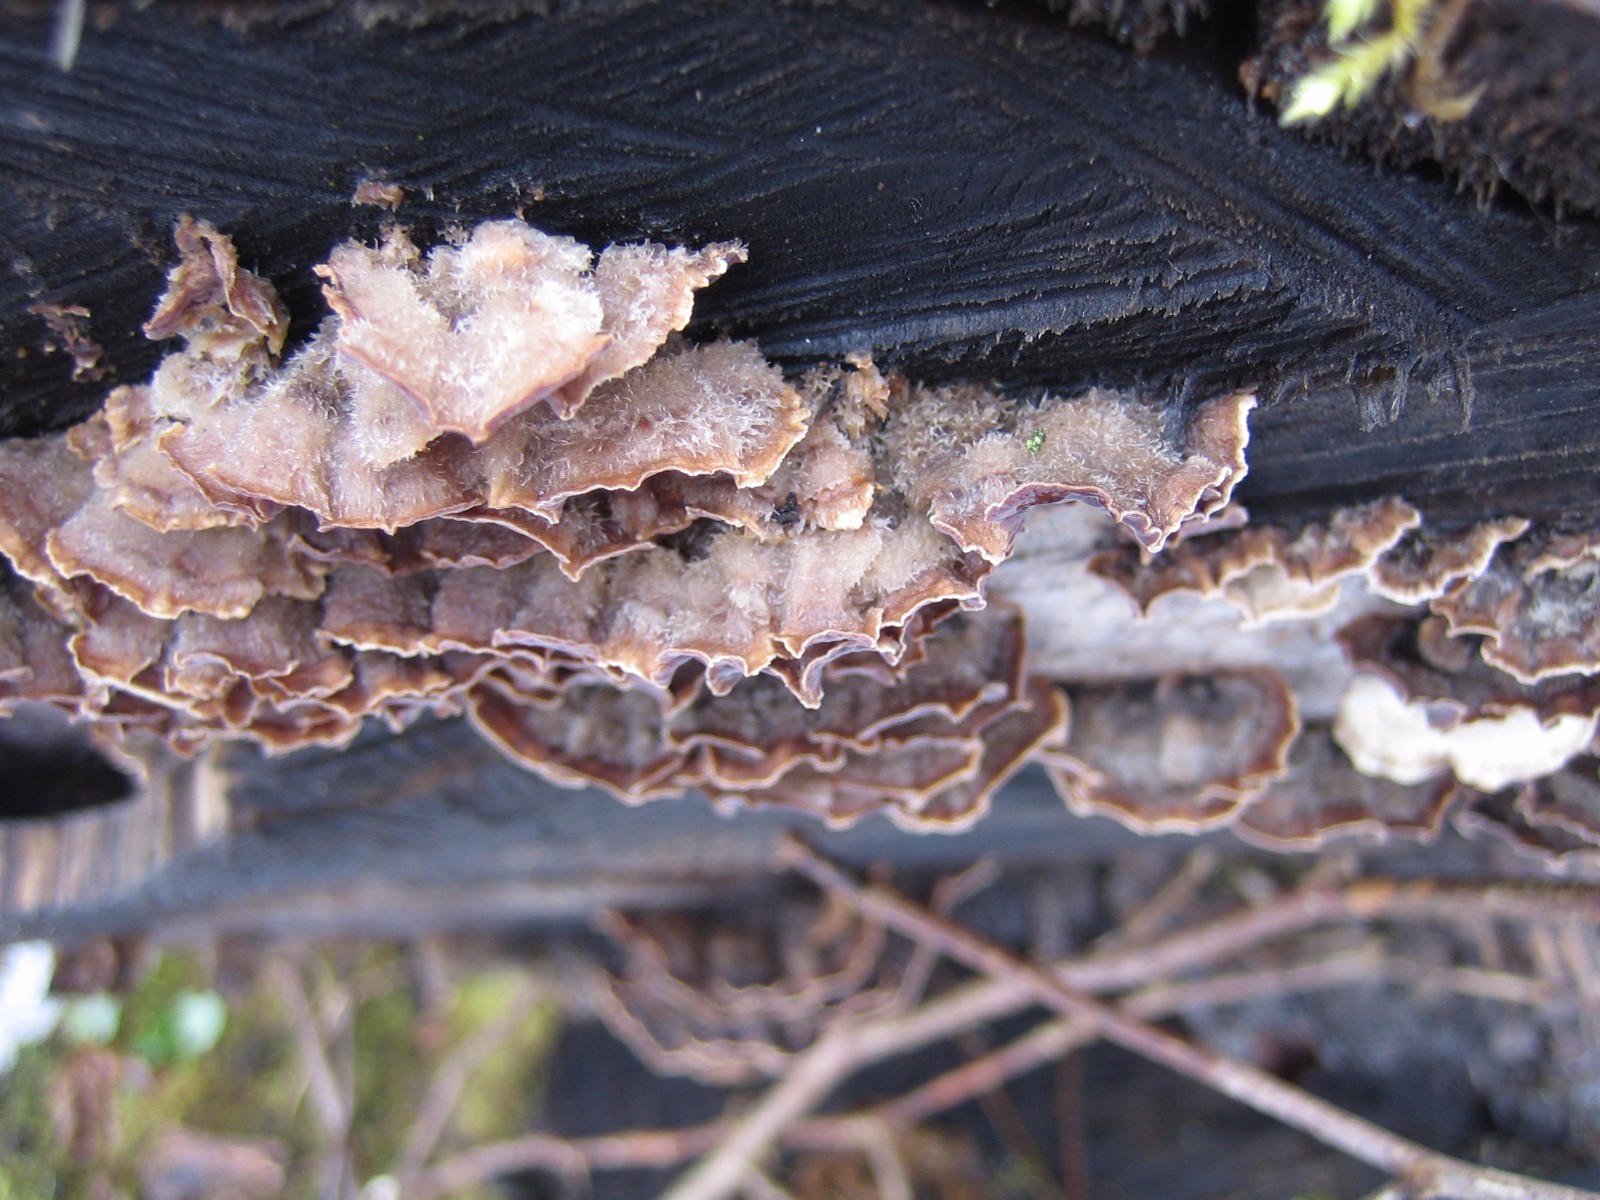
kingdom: Fungi
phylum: Basidiomycota
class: Agaricomycetes
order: Agaricales
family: Cyphellaceae
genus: Chondrostereum
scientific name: Chondrostereum
